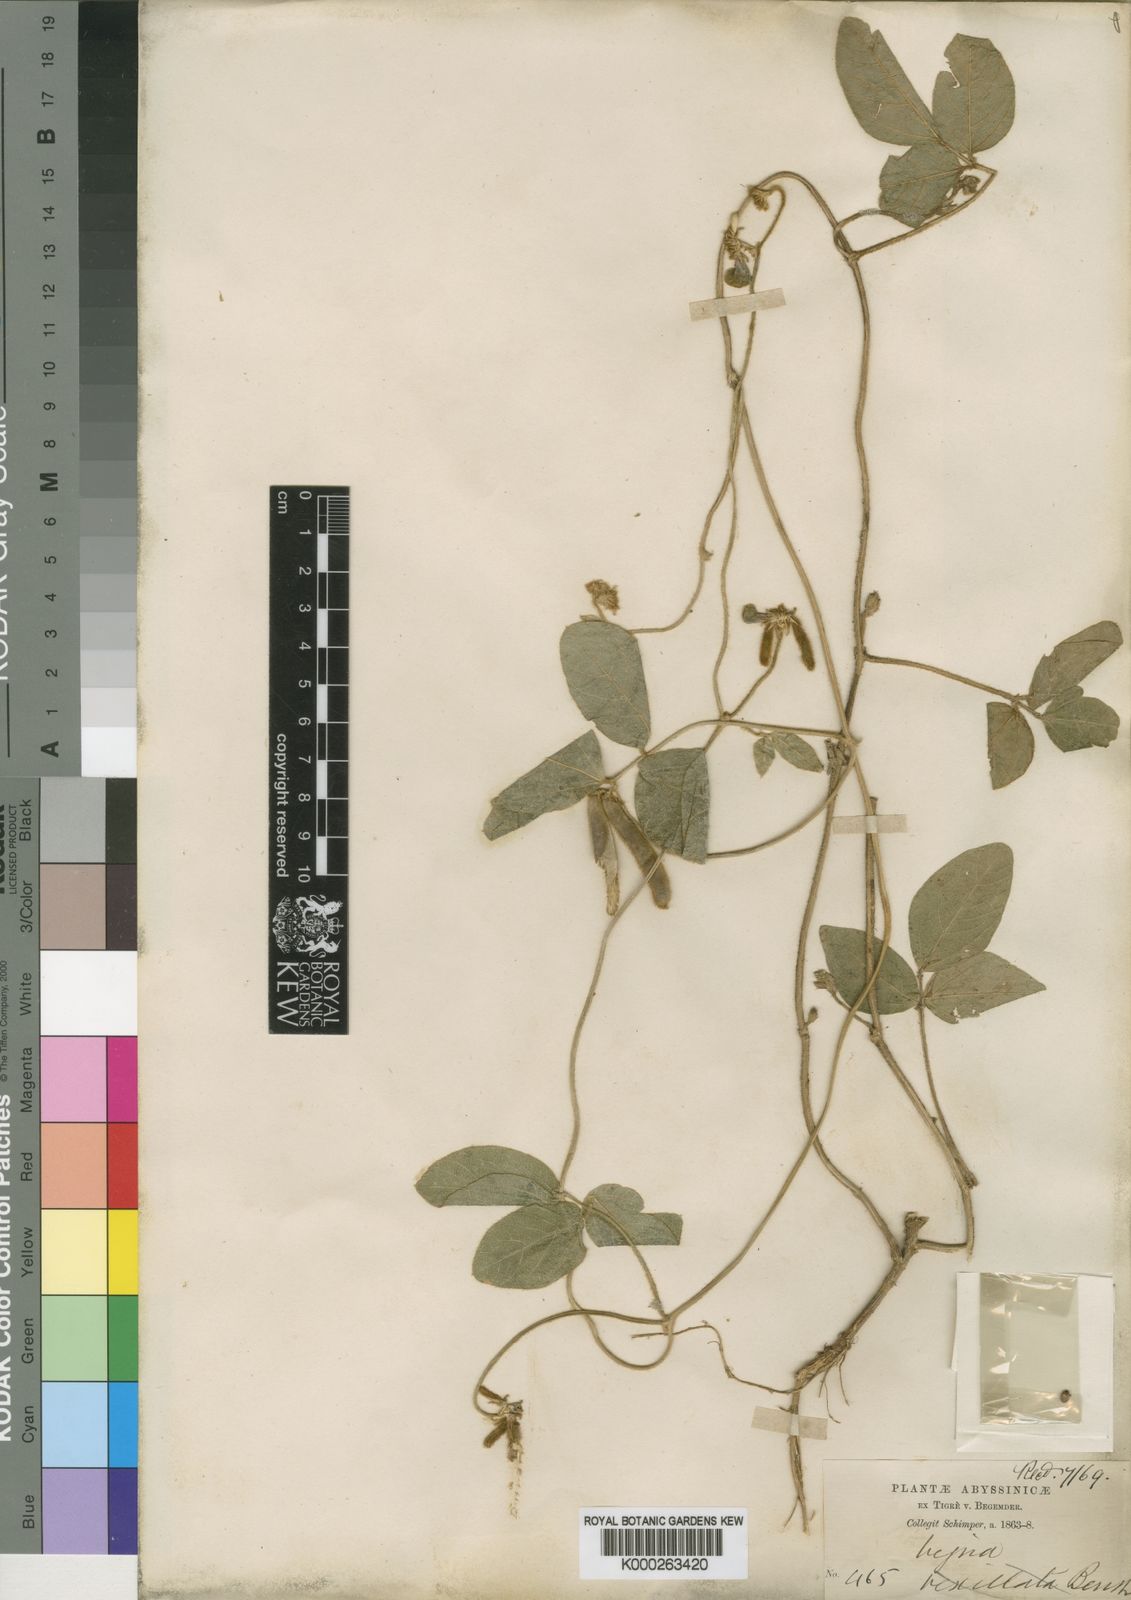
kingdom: Plantae
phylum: Tracheophyta
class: Magnoliopsida
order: Fabales
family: Fabaceae
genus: Vigna
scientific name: Vigna heterophylla
